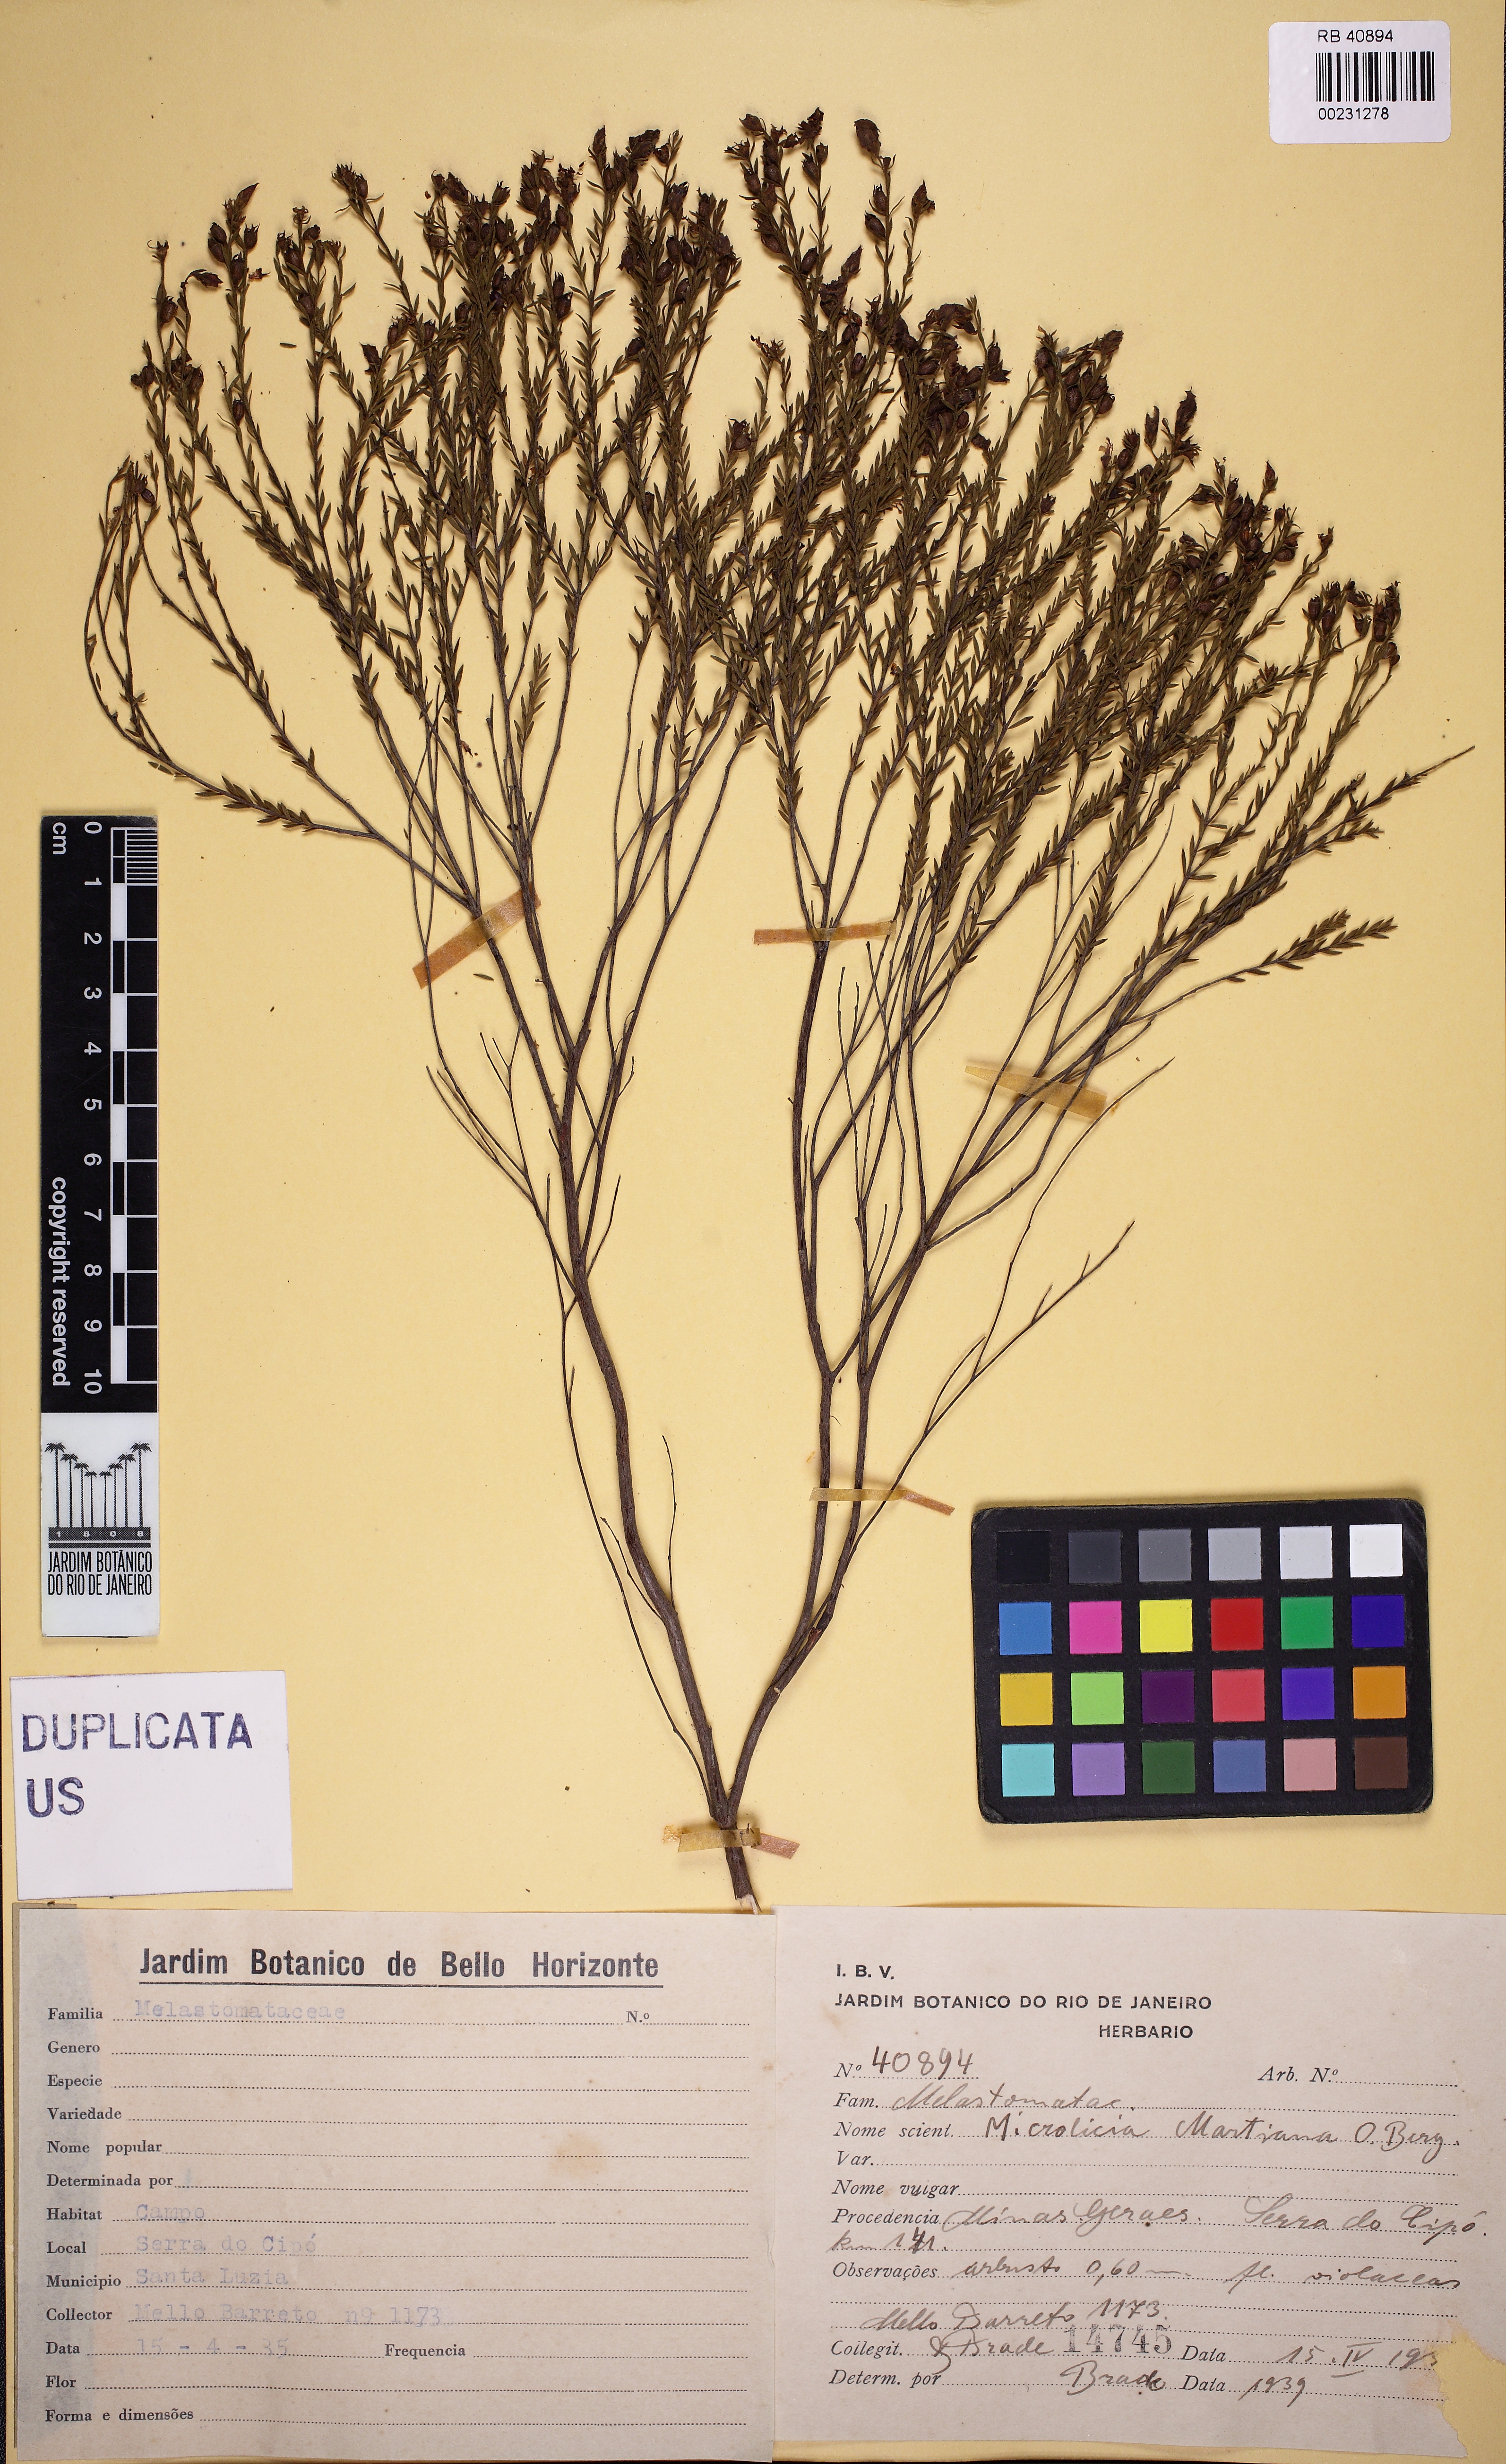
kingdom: Plantae
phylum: Tracheophyta
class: Magnoliopsida
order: Myrtales
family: Melastomataceae
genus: Microlicia
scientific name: Microlicia rugosa
